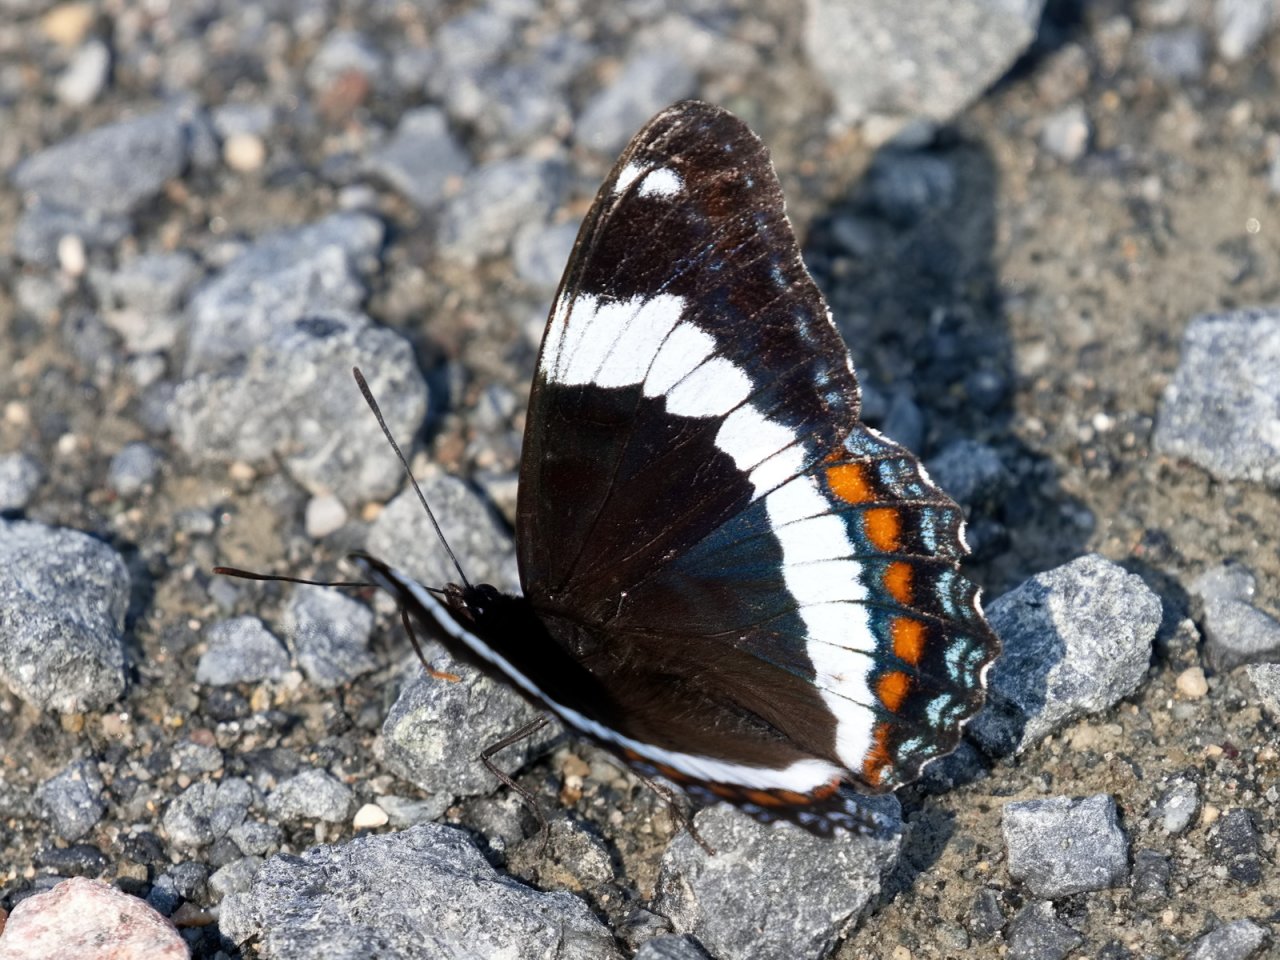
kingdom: Animalia
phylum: Arthropoda
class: Insecta
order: Lepidoptera
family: Nymphalidae
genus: Limenitis
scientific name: Limenitis arthemis
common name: Red-spotted Admiral
